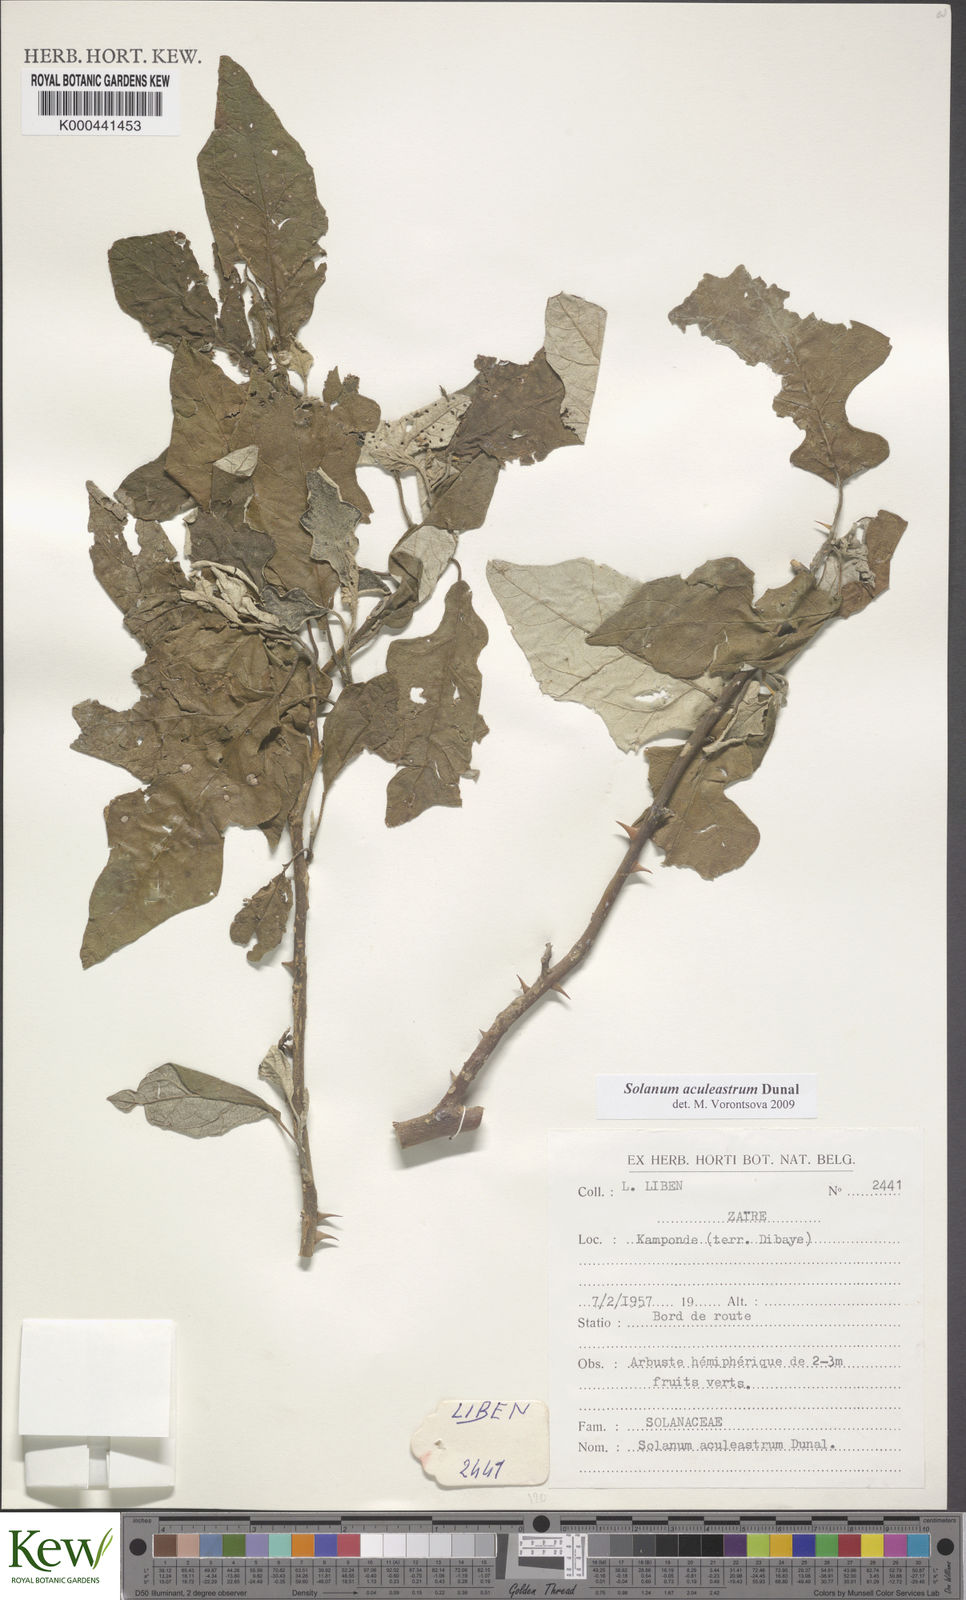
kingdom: Plantae
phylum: Tracheophyta
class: Magnoliopsida
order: Solanales
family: Solanaceae
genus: Solanum
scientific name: Solanum aculeastrum
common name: Goat bitter-apple
